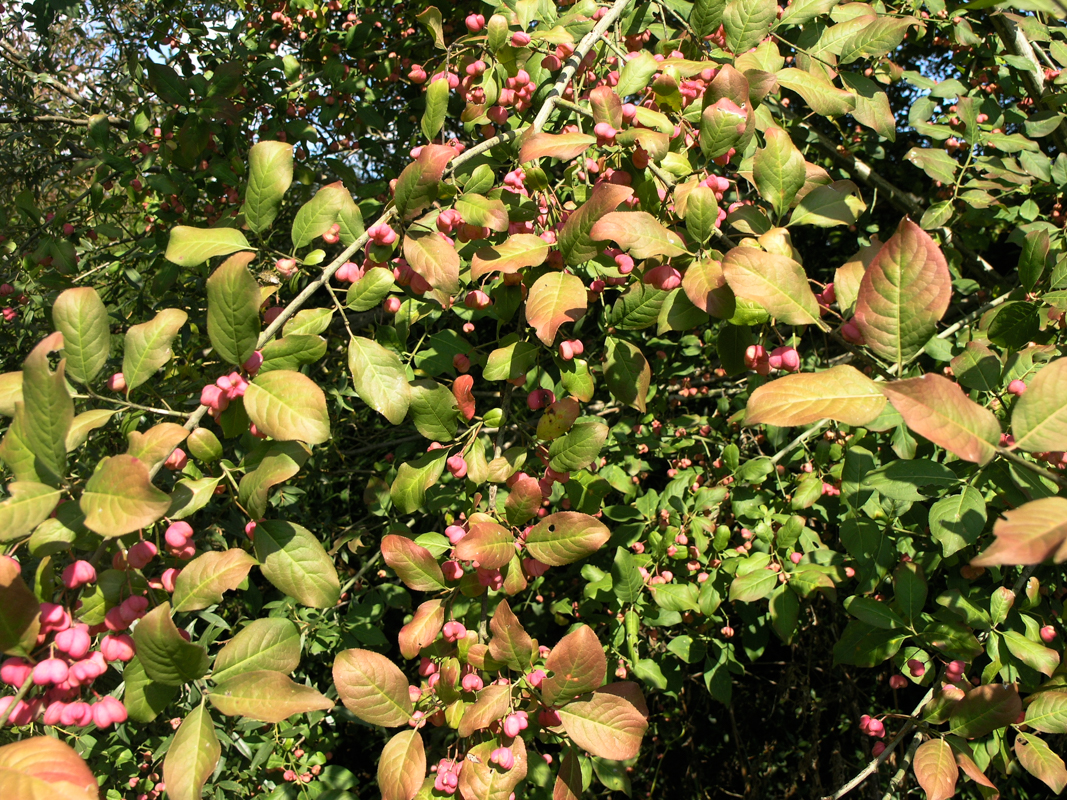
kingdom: Plantae
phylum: Tracheophyta
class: Magnoliopsida
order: Celastrales
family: Celastraceae
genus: Euonymus
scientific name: Euonymus latifolius
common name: Large-leaved spindle
